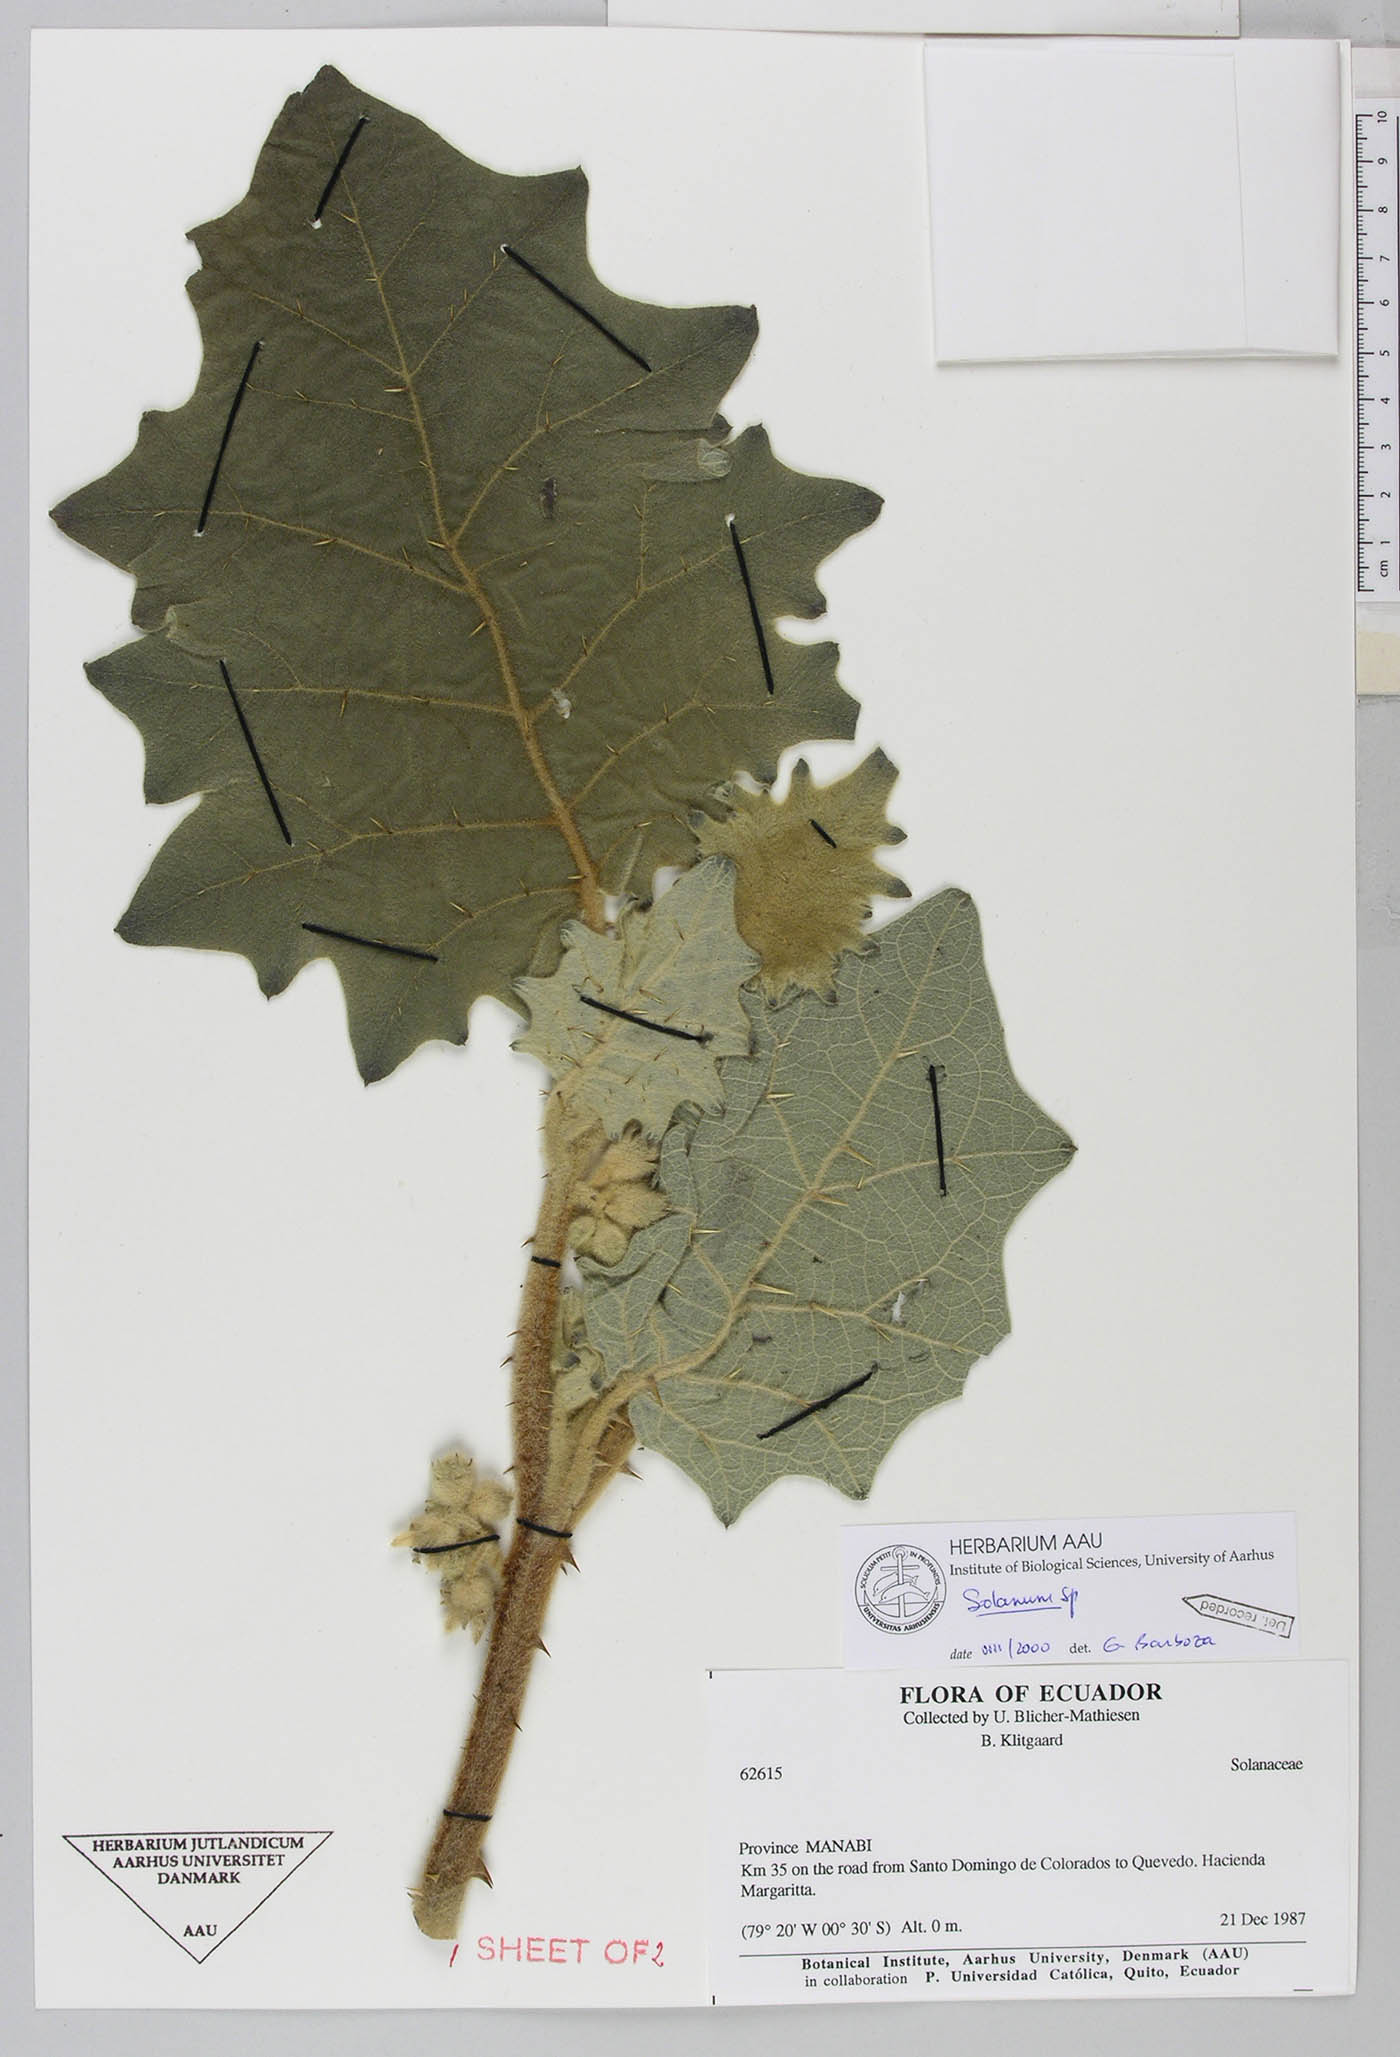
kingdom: Plantae
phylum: Tracheophyta
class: Magnoliopsida
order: Solanales
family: Solanaceae
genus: Solanum
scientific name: Solanum candidum
